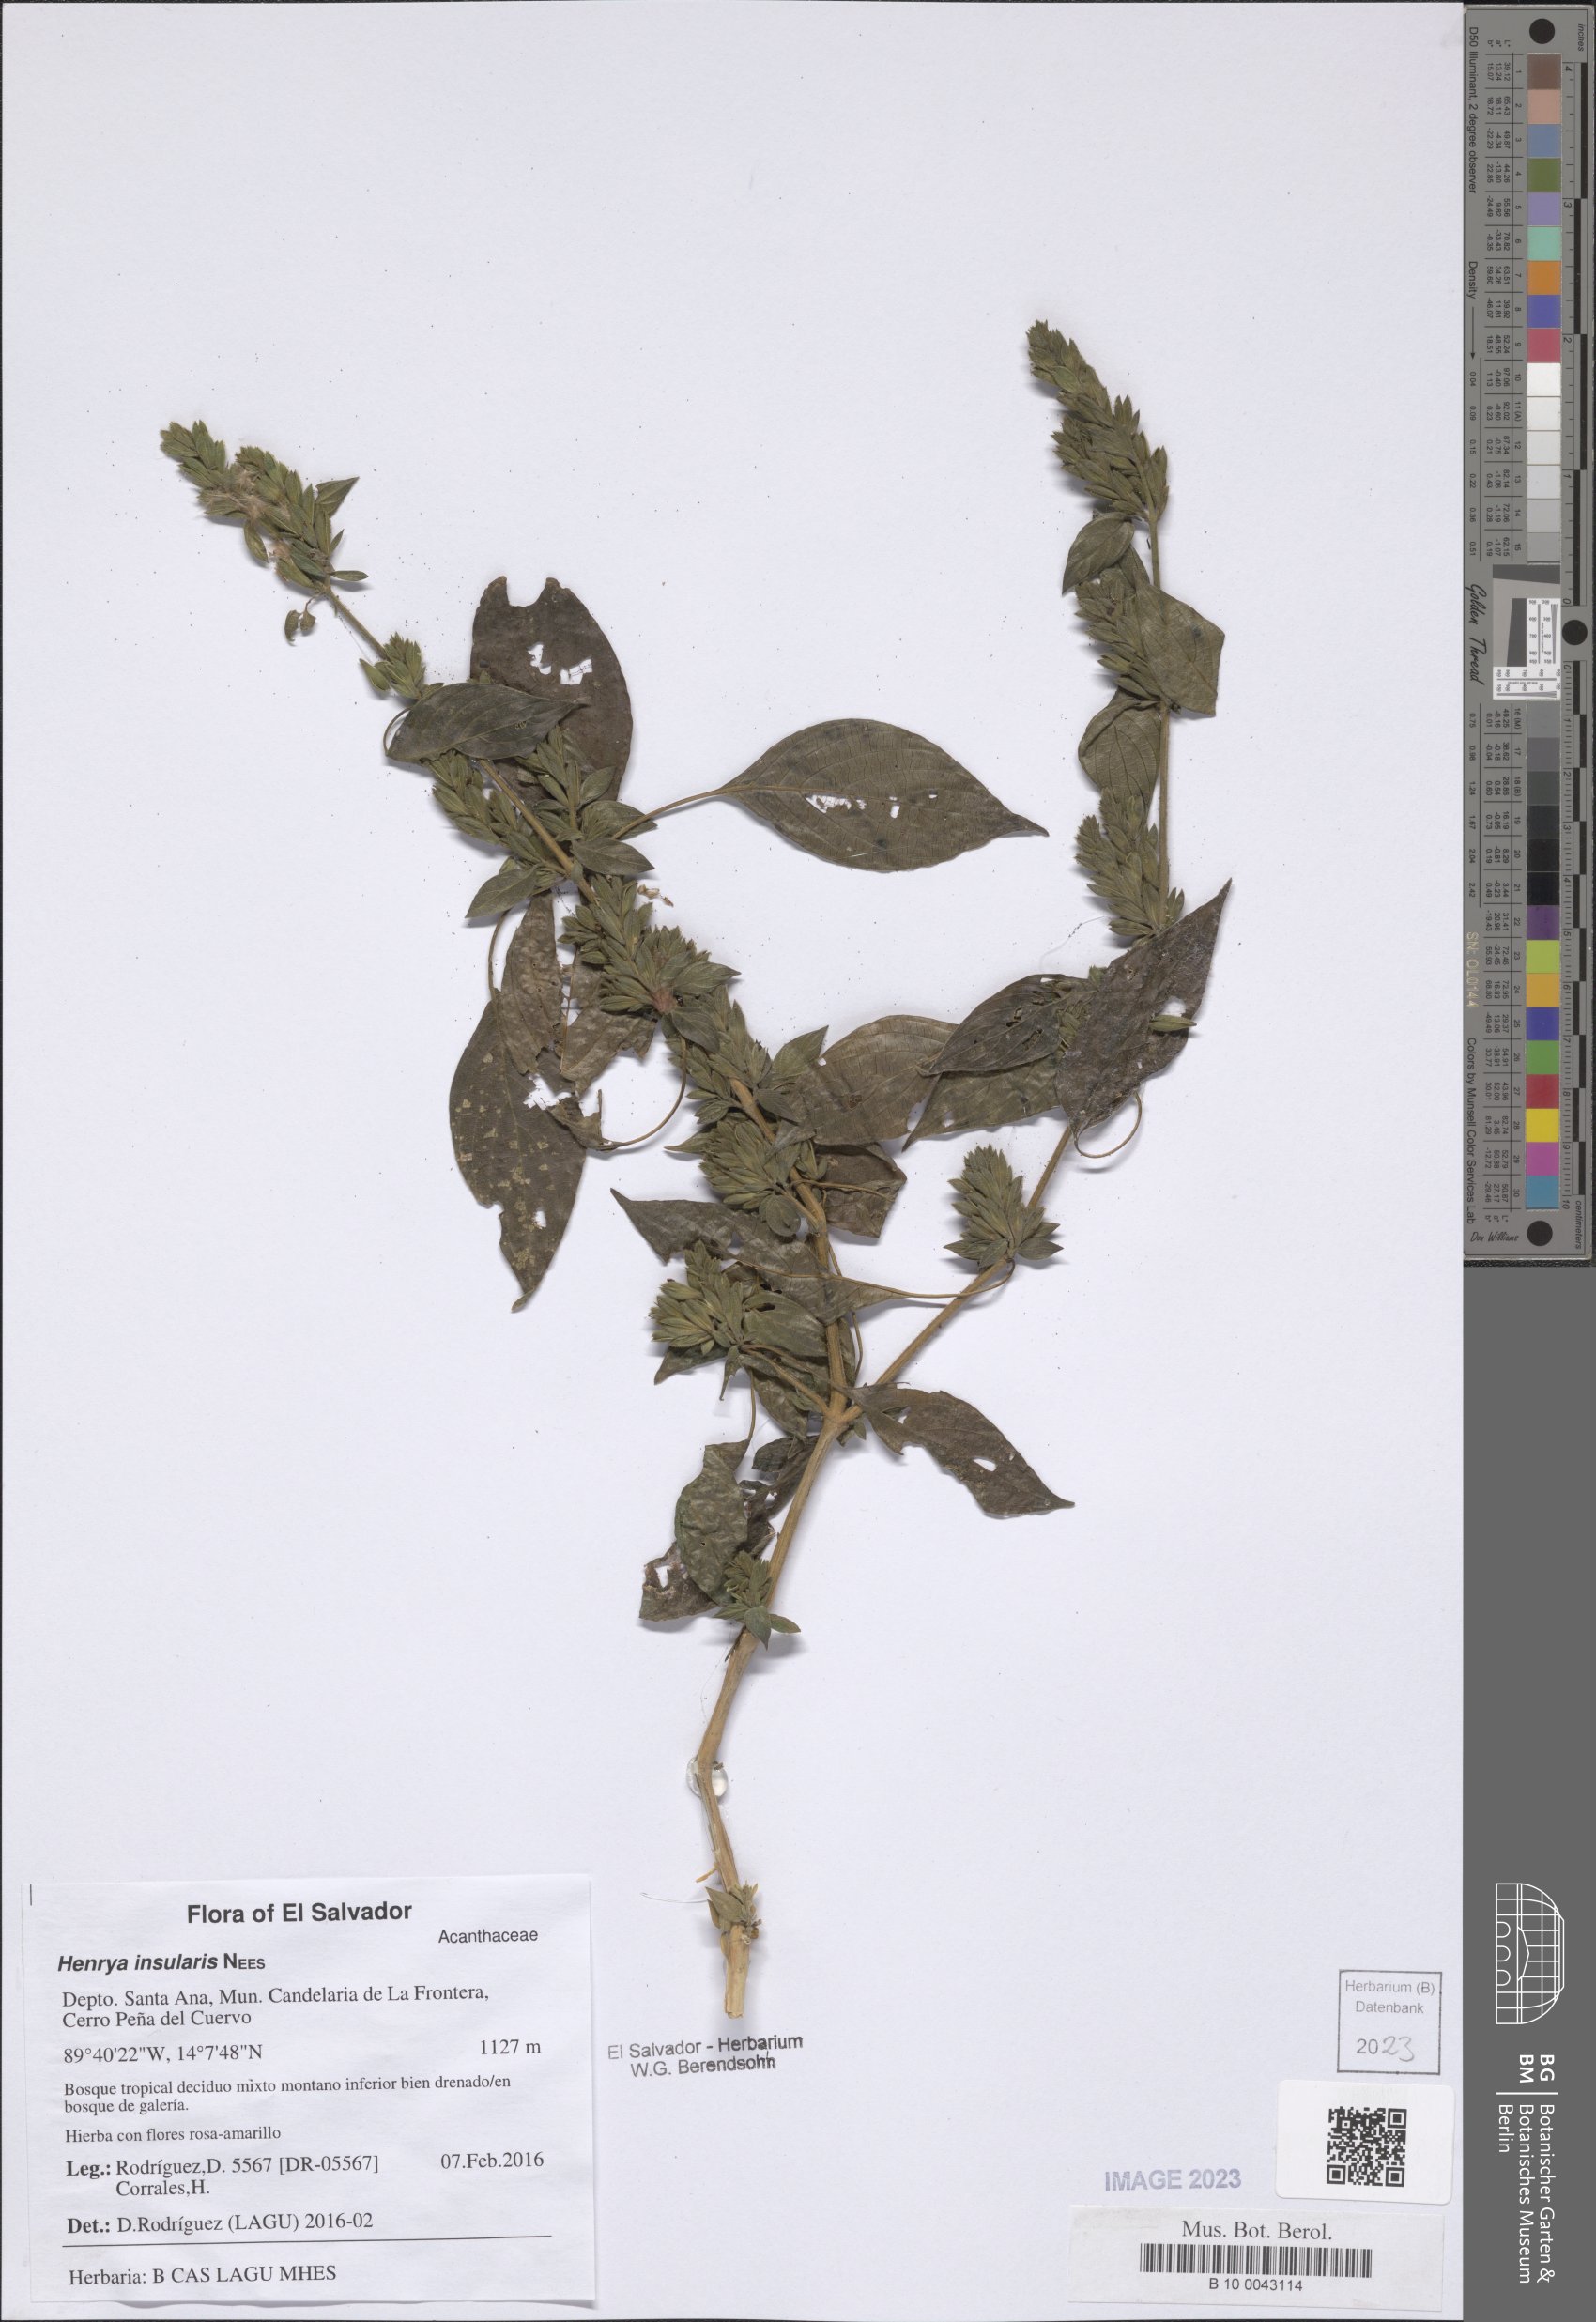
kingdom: Plantae
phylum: Tracheophyta
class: Magnoliopsida
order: Lamiales
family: Acanthaceae
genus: Henrya
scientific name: Henrya insularis
